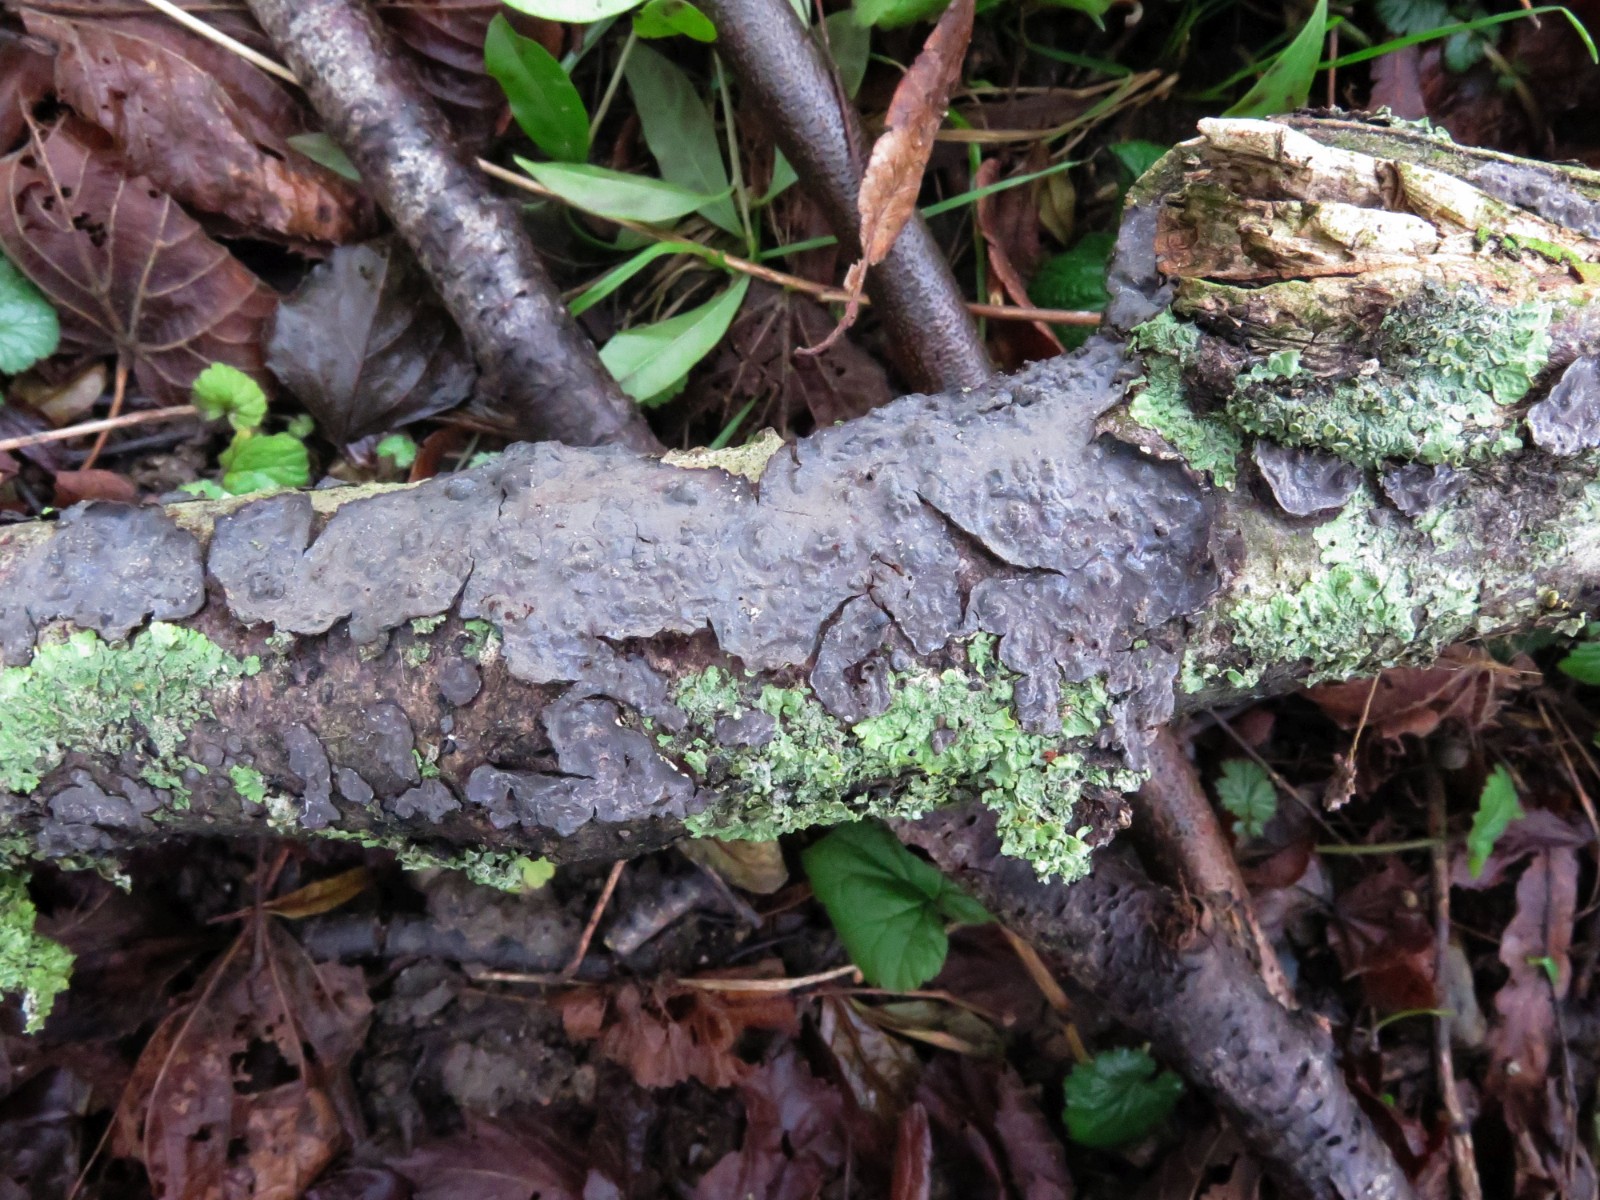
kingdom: Fungi
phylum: Basidiomycota
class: Agaricomycetes
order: Russulales
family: Peniophoraceae
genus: Peniophora
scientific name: Peniophora rufomarginata
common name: linde-voksskind
